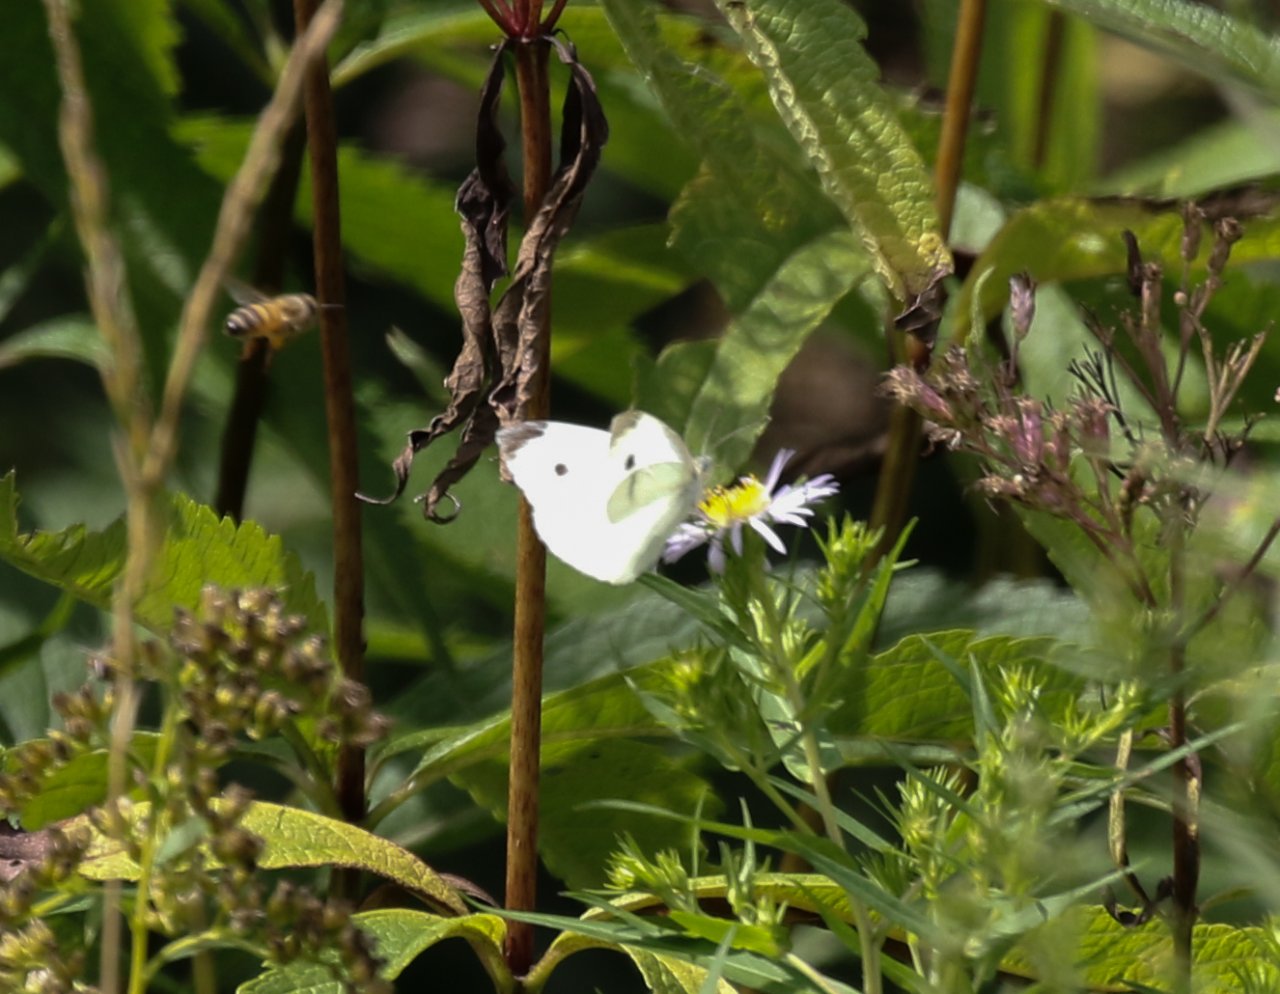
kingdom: Animalia
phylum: Arthropoda
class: Insecta
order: Lepidoptera
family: Pieridae
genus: Pieris
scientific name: Pieris rapae
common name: Cabbage White
